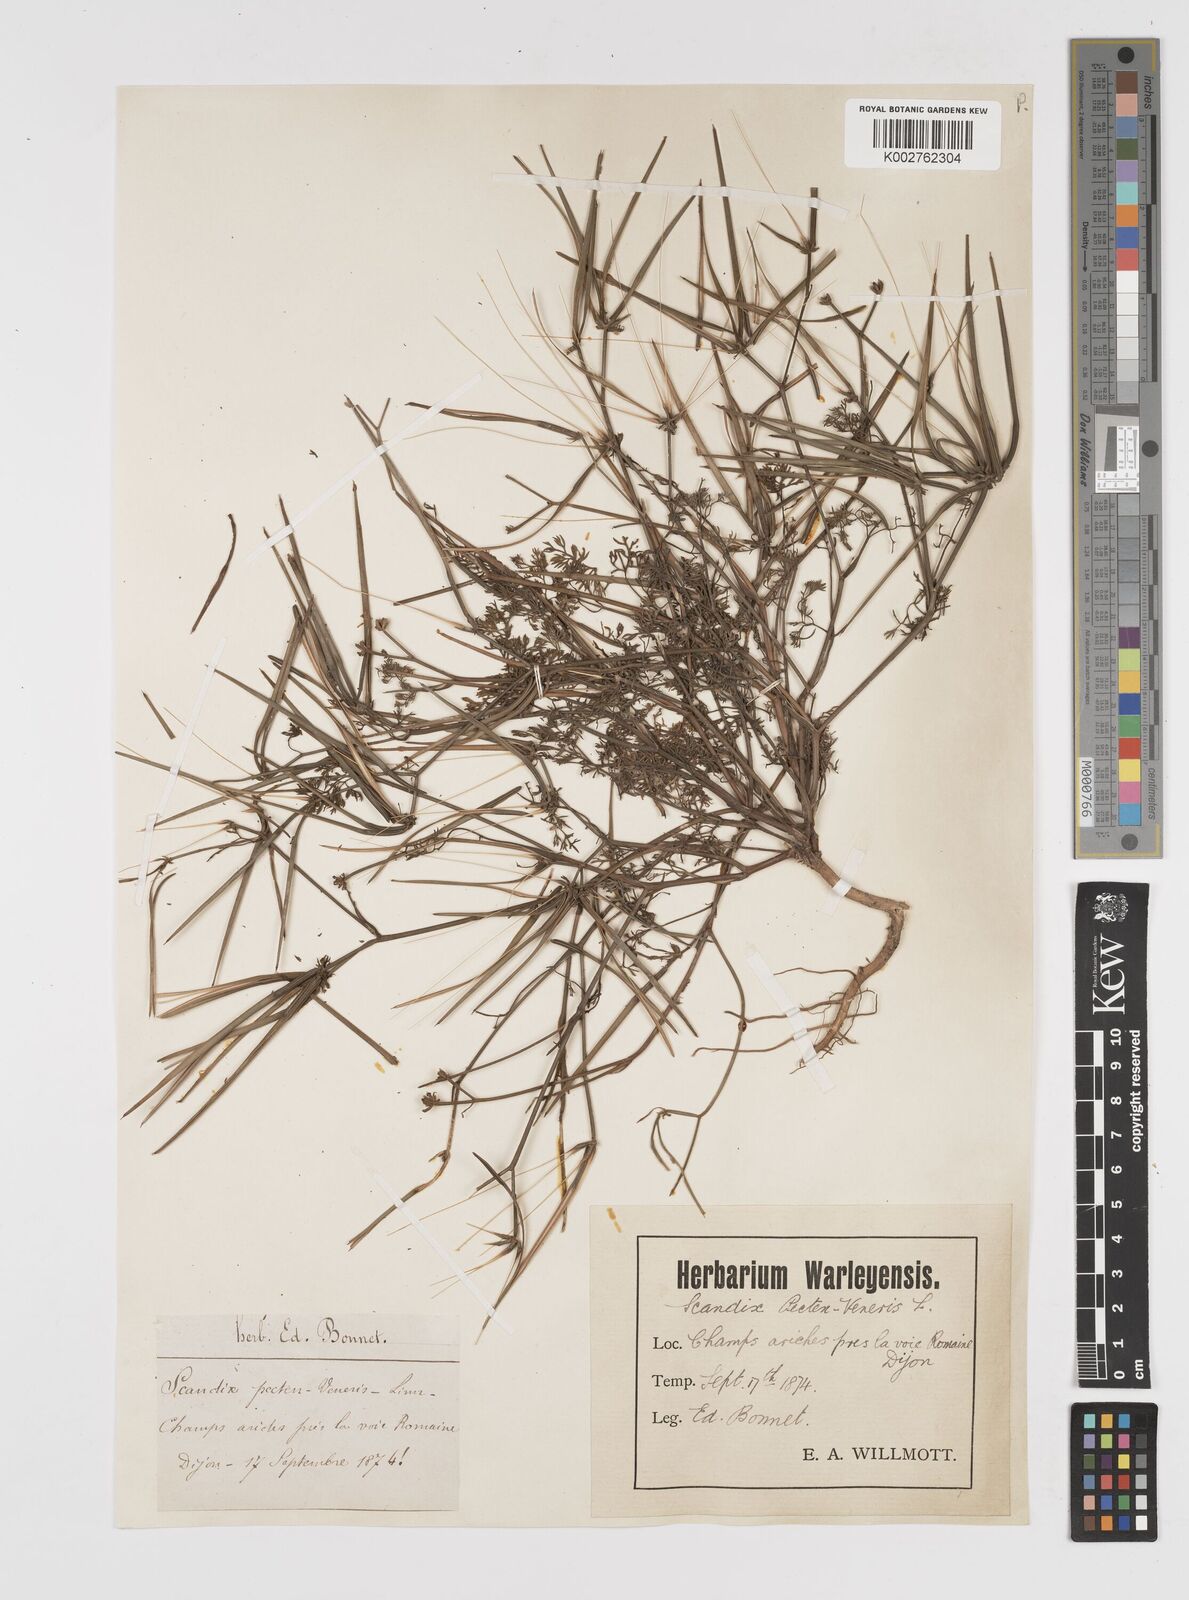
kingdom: Plantae
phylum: Tracheophyta
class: Magnoliopsida
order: Apiales
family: Apiaceae
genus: Scandix
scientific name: Scandix pecten-veneris
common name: Shepherd's-needle
